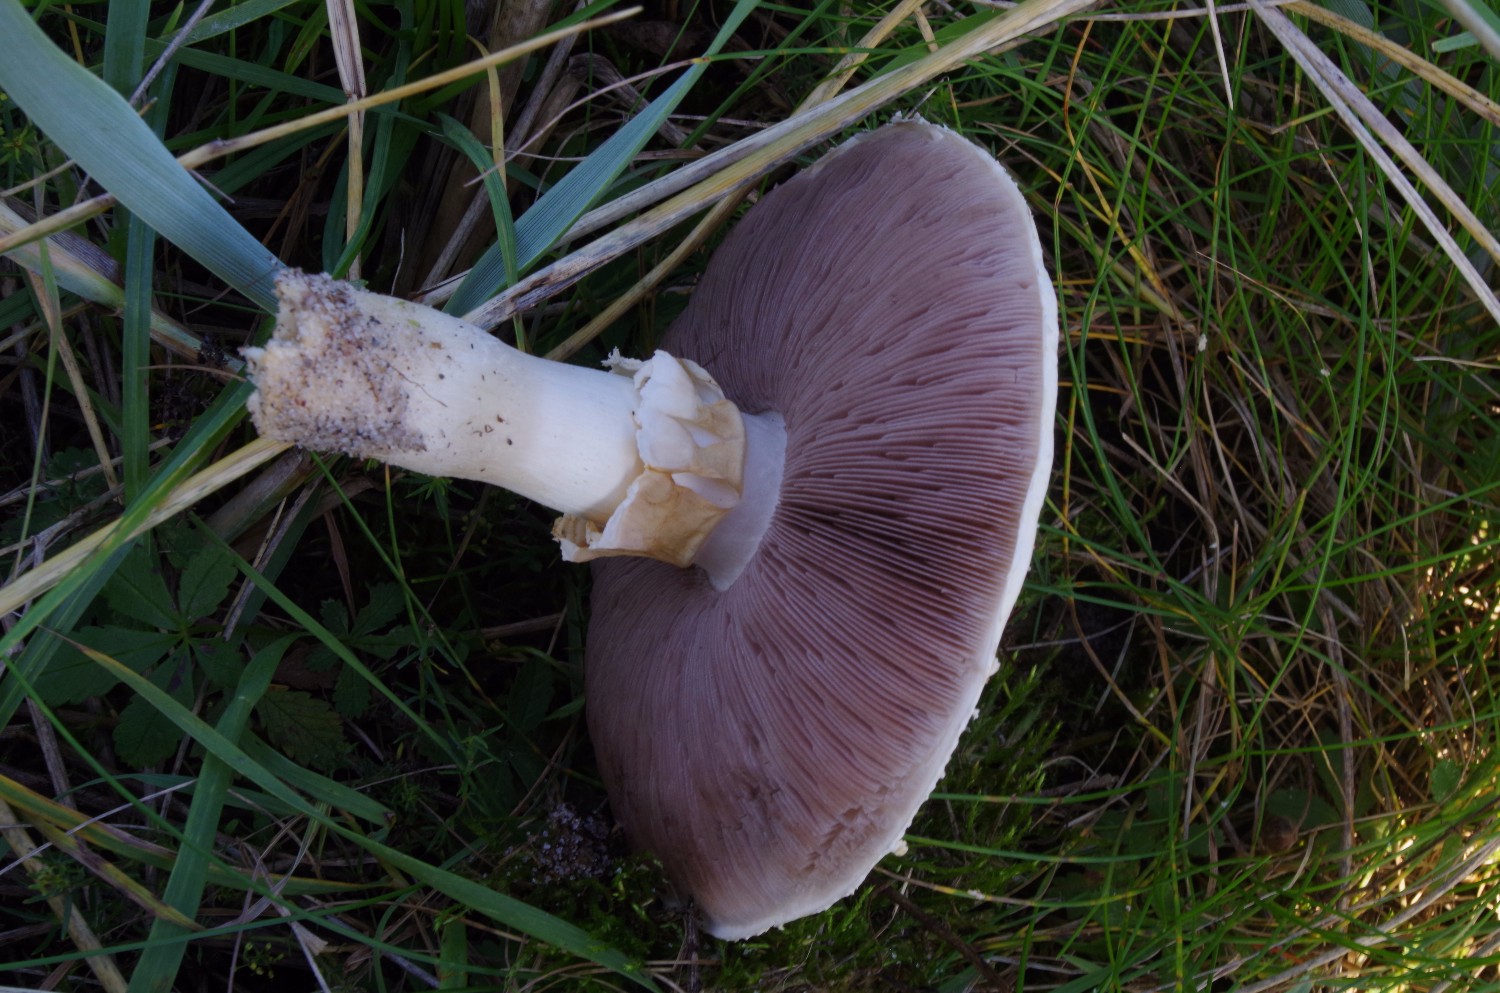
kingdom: Fungi
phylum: Basidiomycota
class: Agaricomycetes
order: Agaricales
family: Agaricaceae
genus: Agaricus
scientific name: Agaricus
